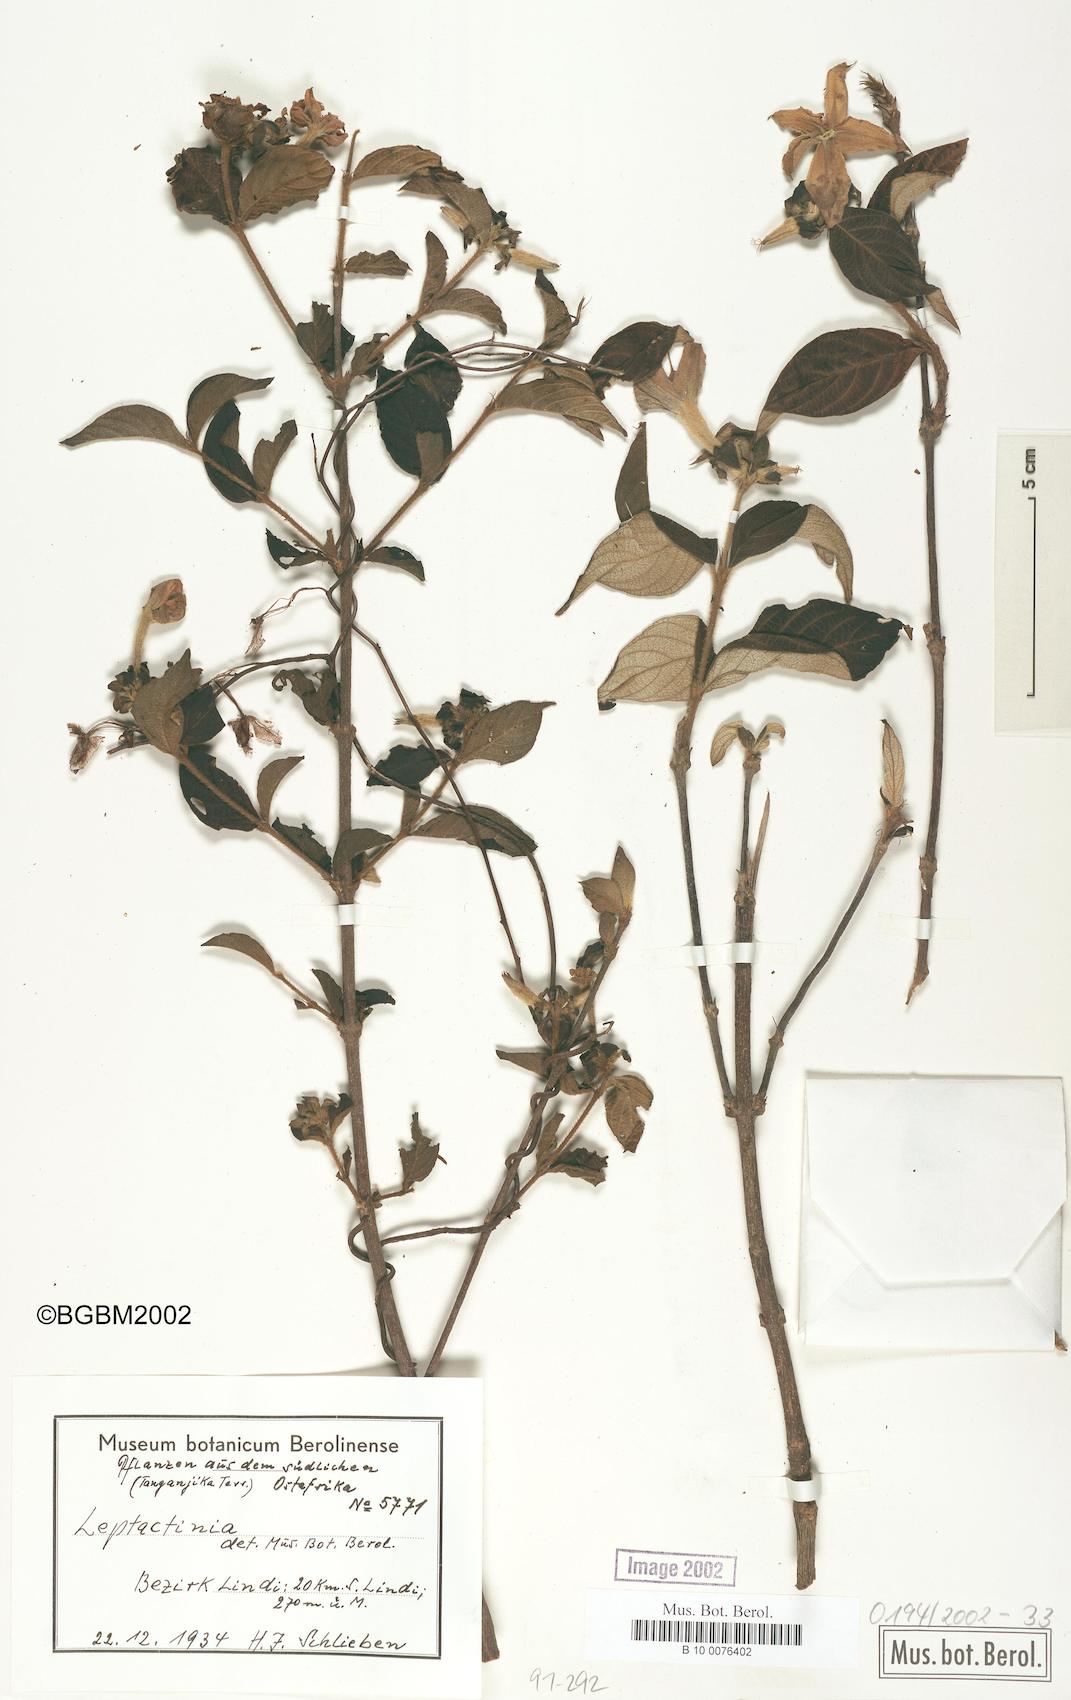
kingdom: Plantae
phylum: Tracheophyta
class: Magnoliopsida
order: Gentianales
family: Rubiaceae
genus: Leptactinia
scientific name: Leptactinia
